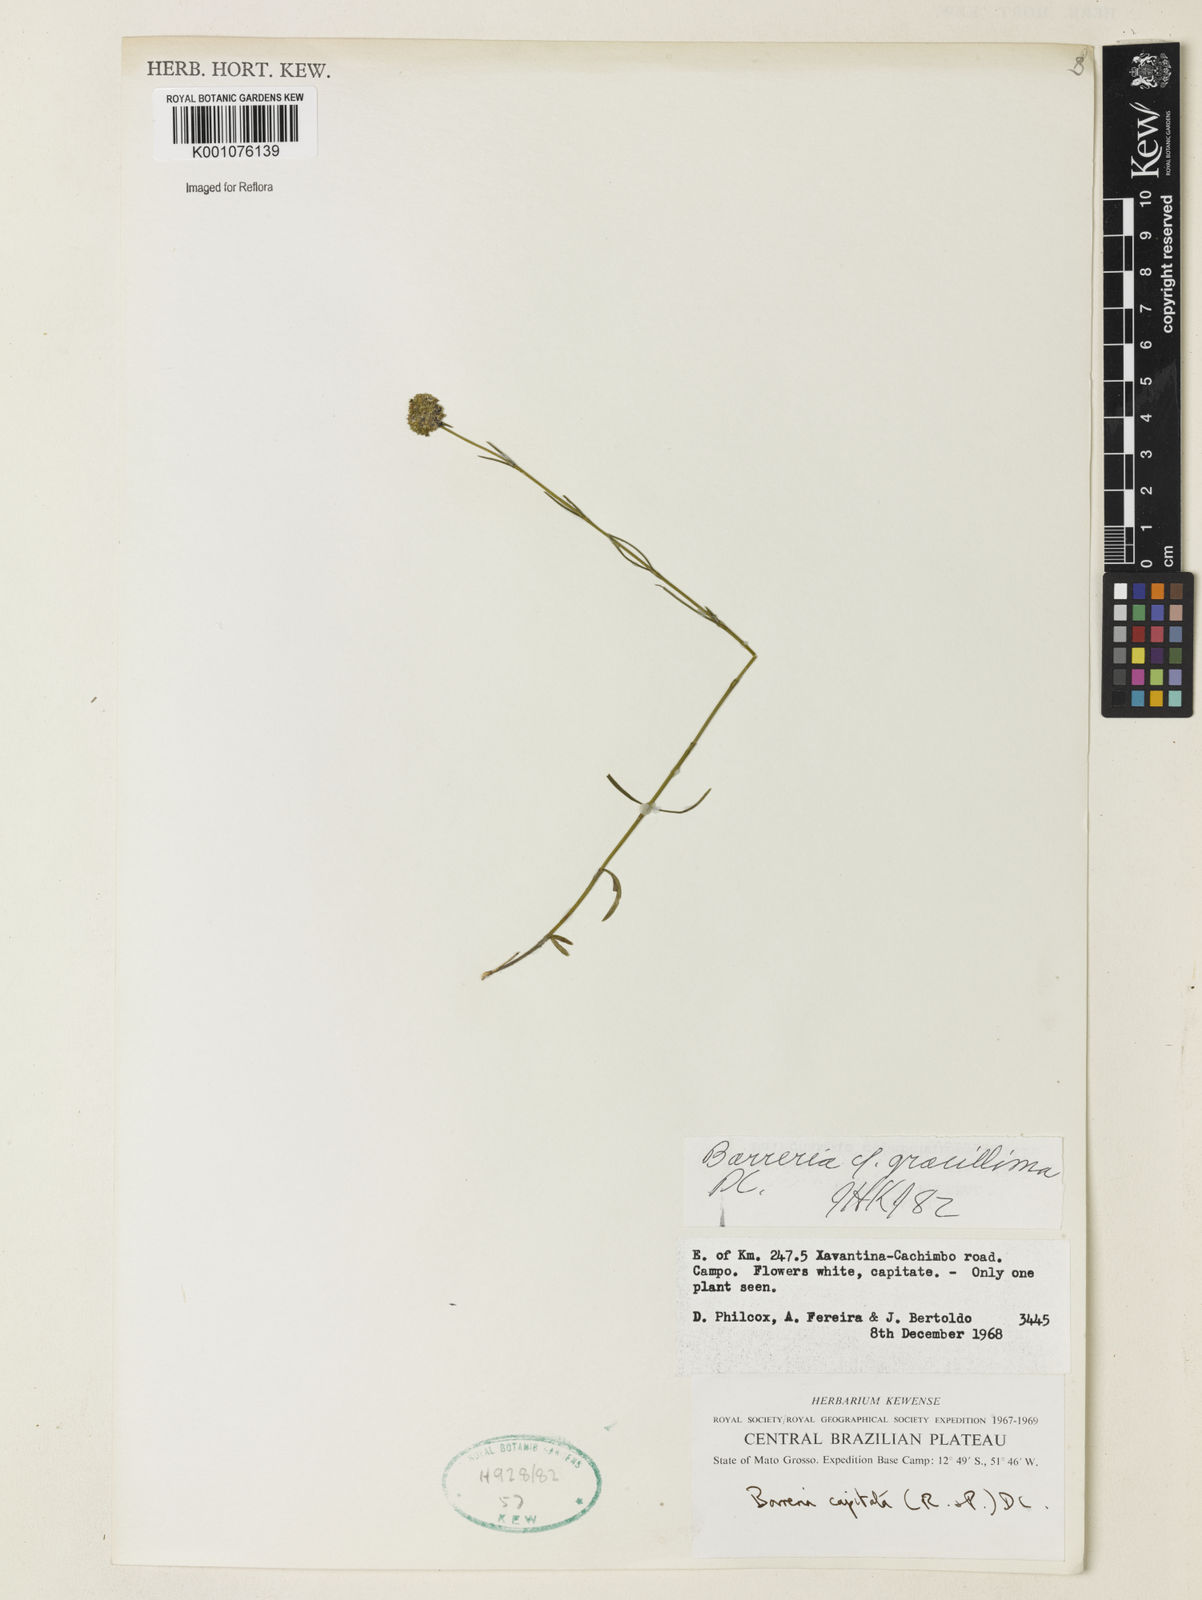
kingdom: Plantae
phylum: Tracheophyta
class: Magnoliopsida
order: Gentianales
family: Rubiaceae
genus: Spermacoce
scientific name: Spermacoce gracillima
